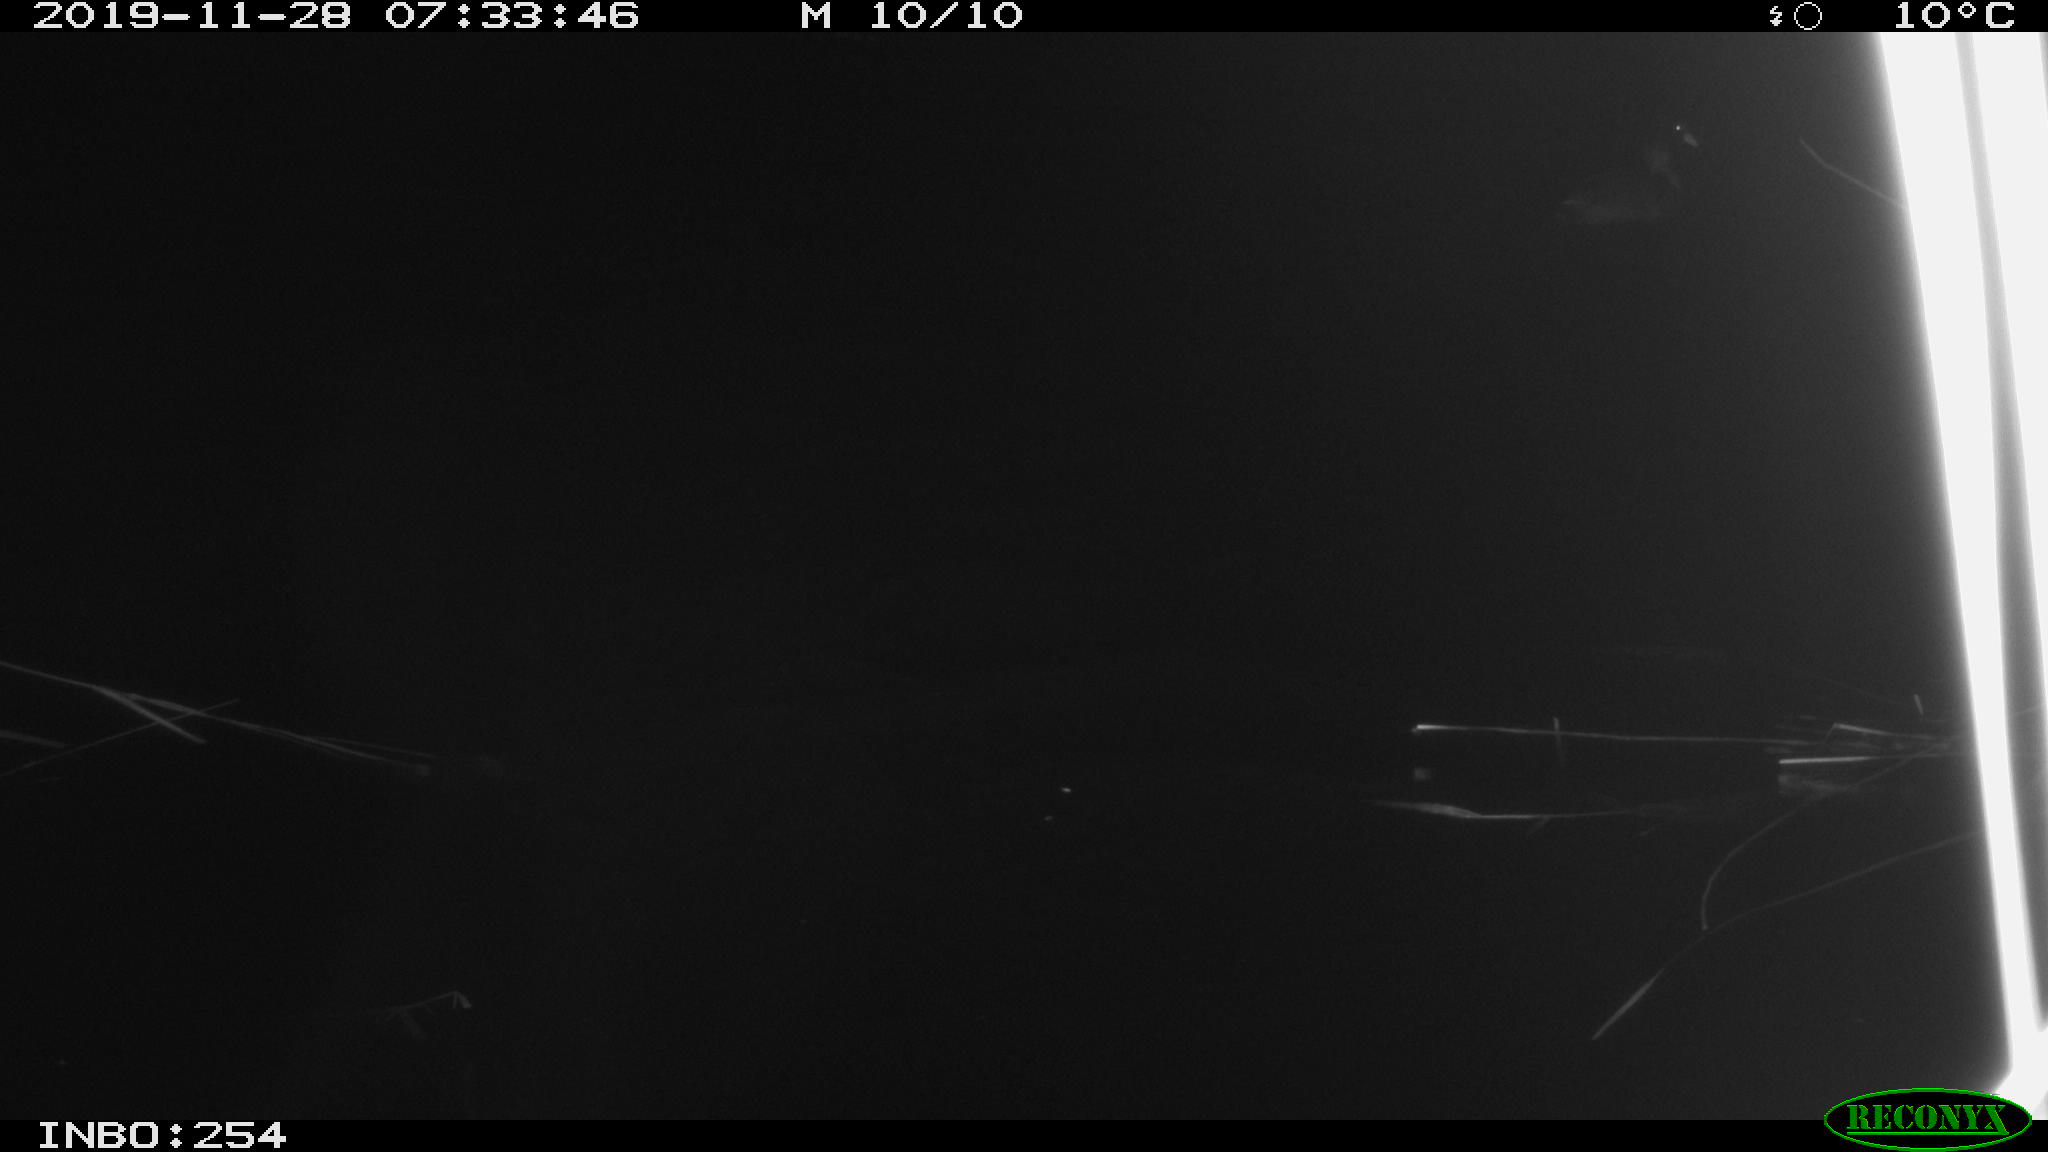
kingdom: Animalia
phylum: Chordata
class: Aves
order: Gruiformes
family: Rallidae
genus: Fulica
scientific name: Fulica atra
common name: Eurasian coot
